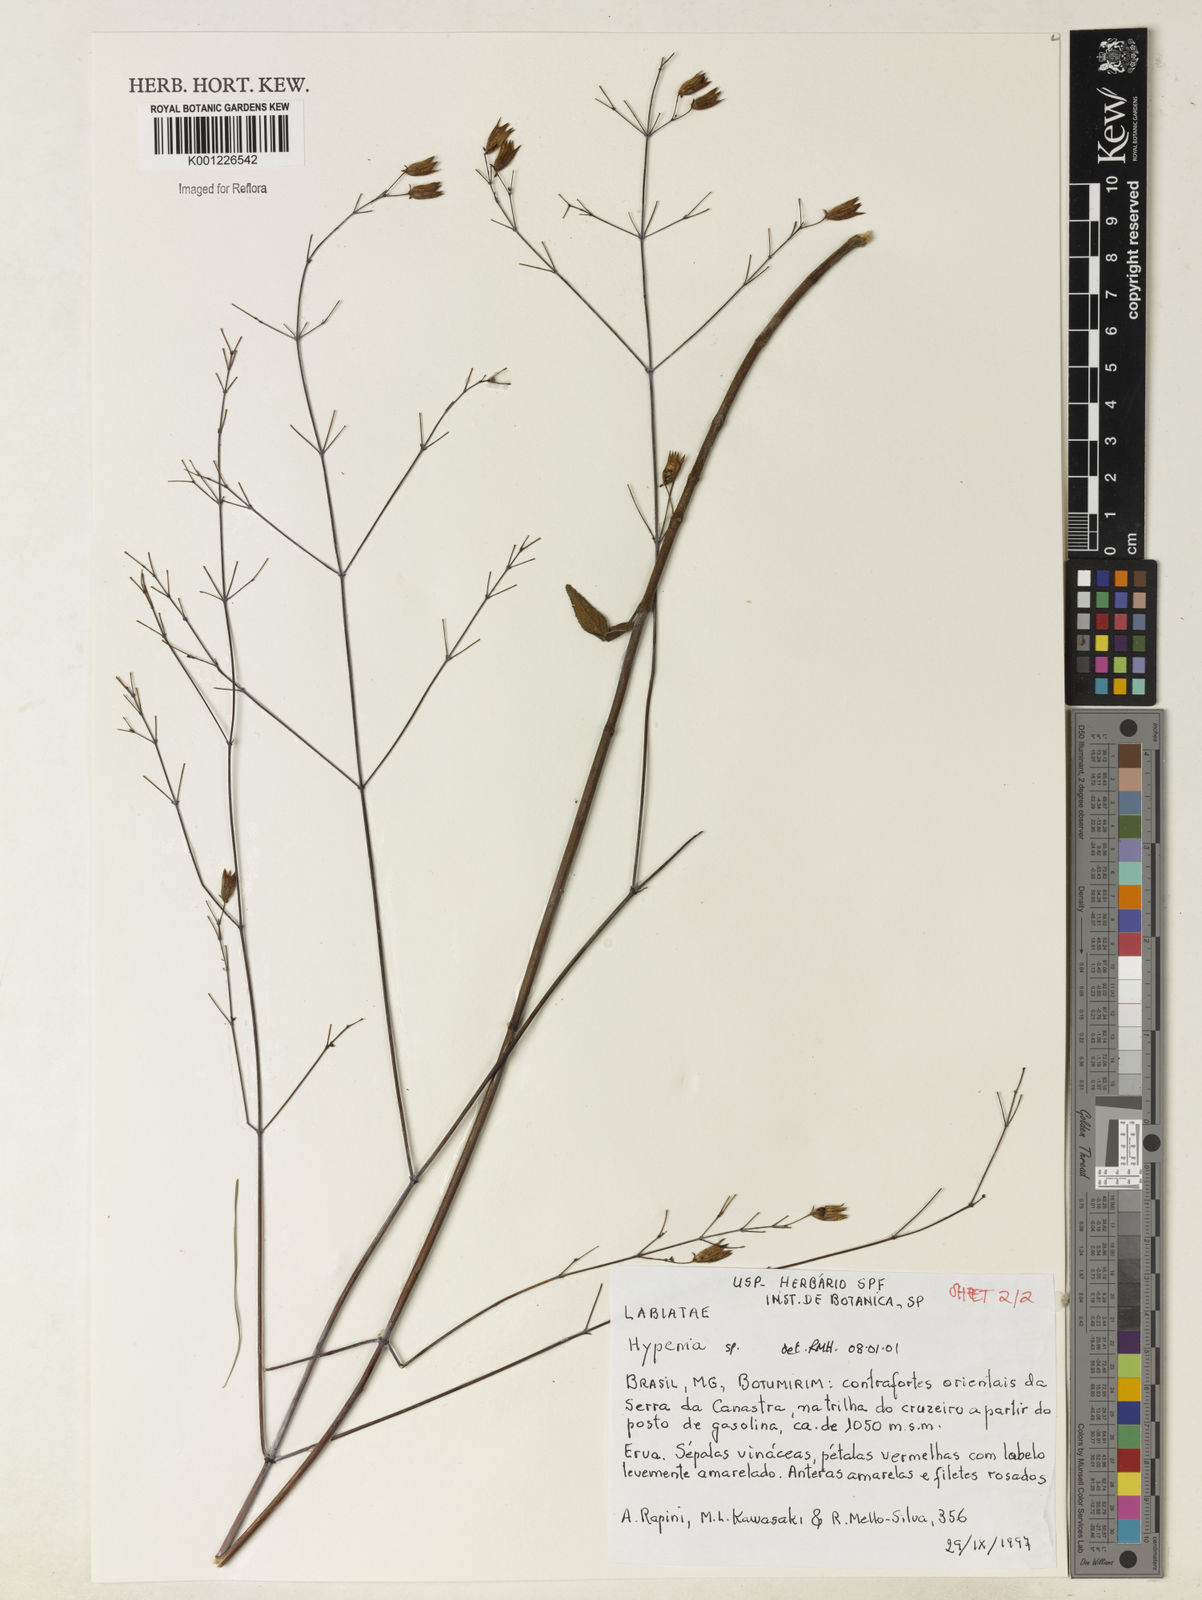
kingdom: Plantae
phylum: Tracheophyta
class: Magnoliopsida
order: Lamiales
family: Lamiaceae
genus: Hypenia
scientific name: Hypenia
